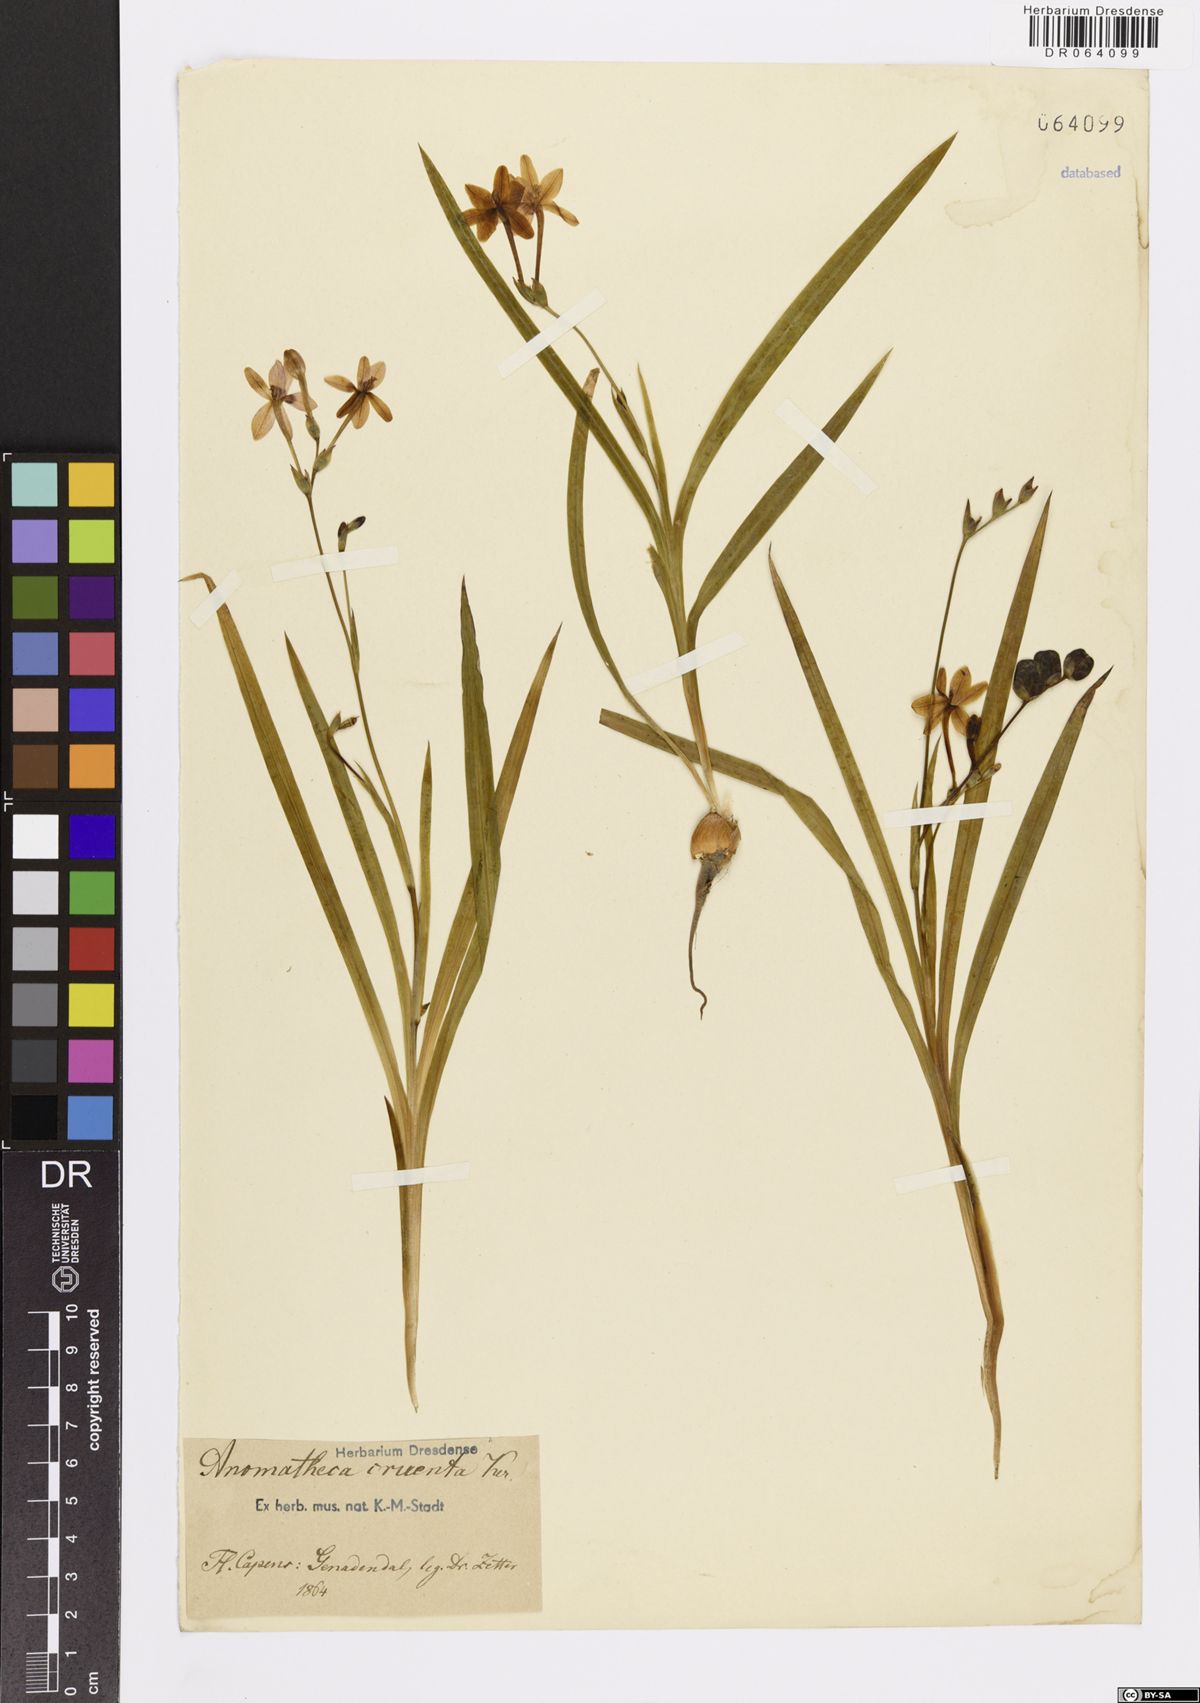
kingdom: Plantae
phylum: Tracheophyta
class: Liliopsida
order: Asparagales
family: Iridaceae
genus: Freesia
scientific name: Freesia laxa
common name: False freesia
